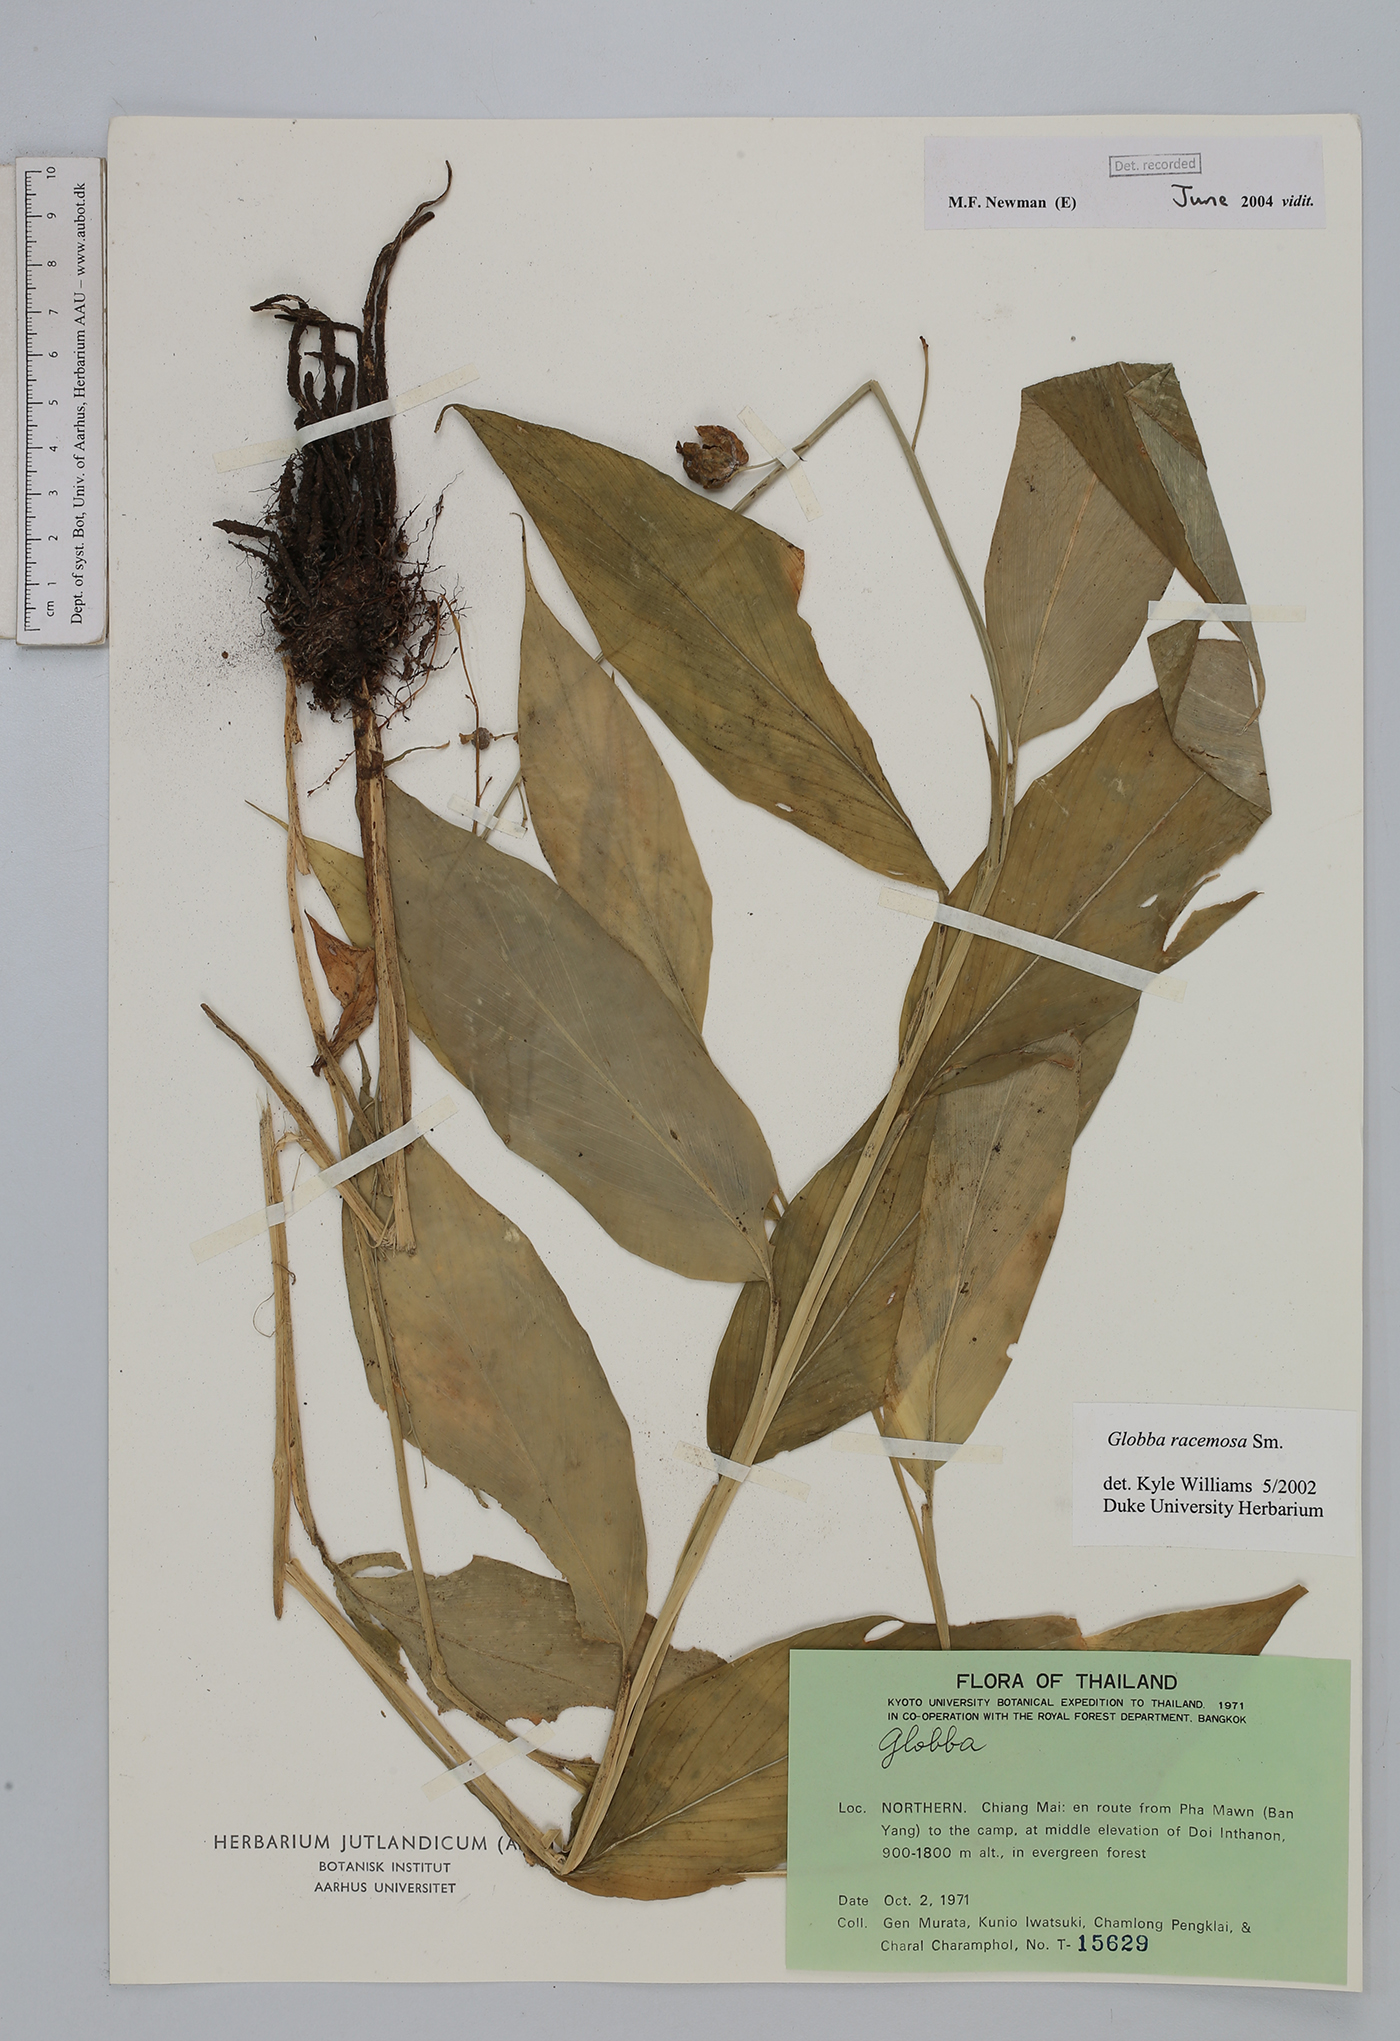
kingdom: Plantae
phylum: Tracheophyta
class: Liliopsida
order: Zingiberales
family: Zingiberaceae
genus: Globba
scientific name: Globba racemosa
